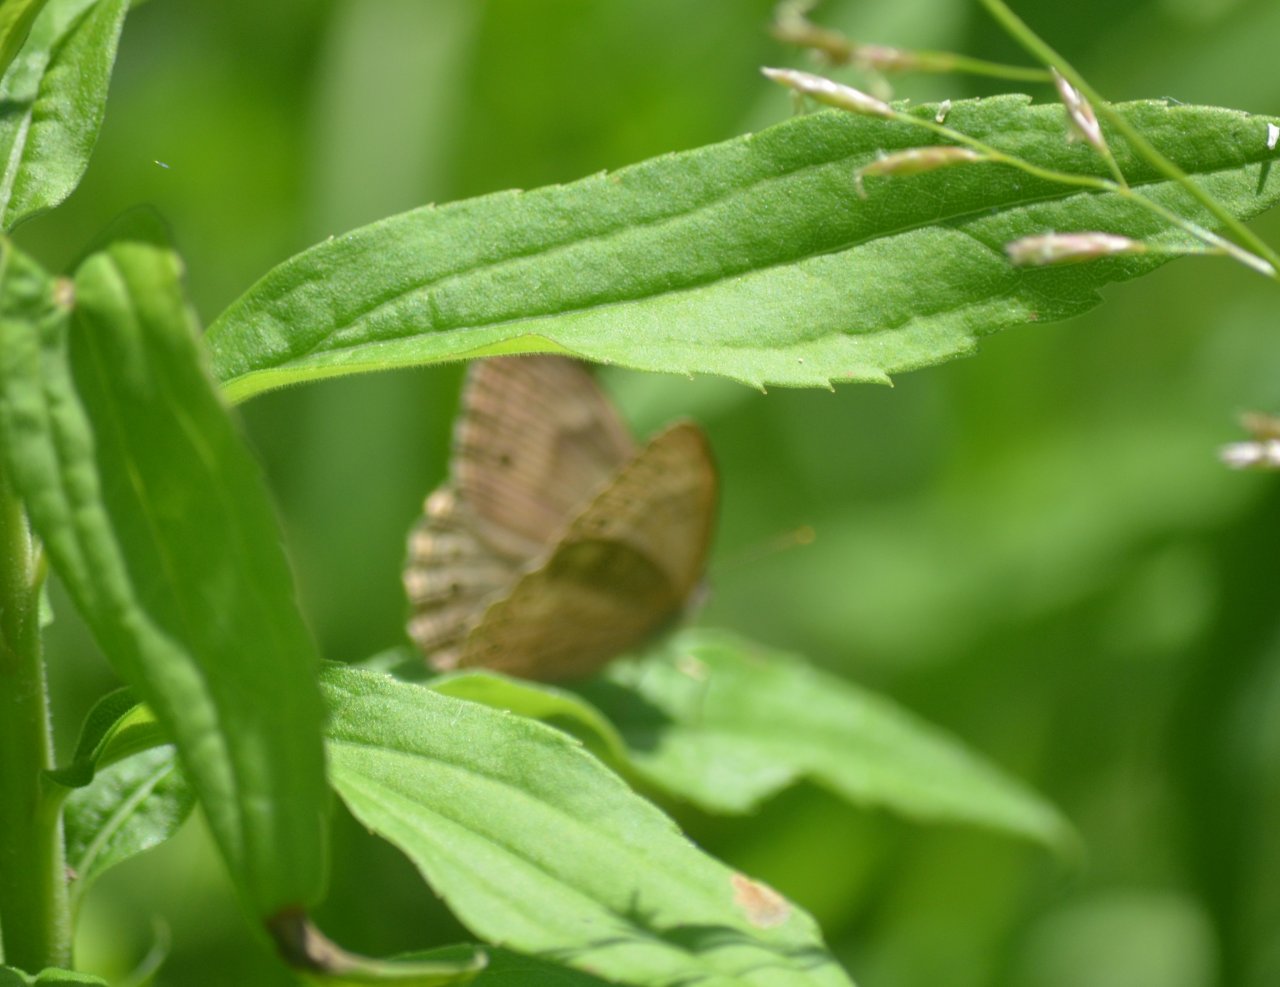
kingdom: Animalia
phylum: Arthropoda
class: Insecta
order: Lepidoptera
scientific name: Lepidoptera
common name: Butterflies
